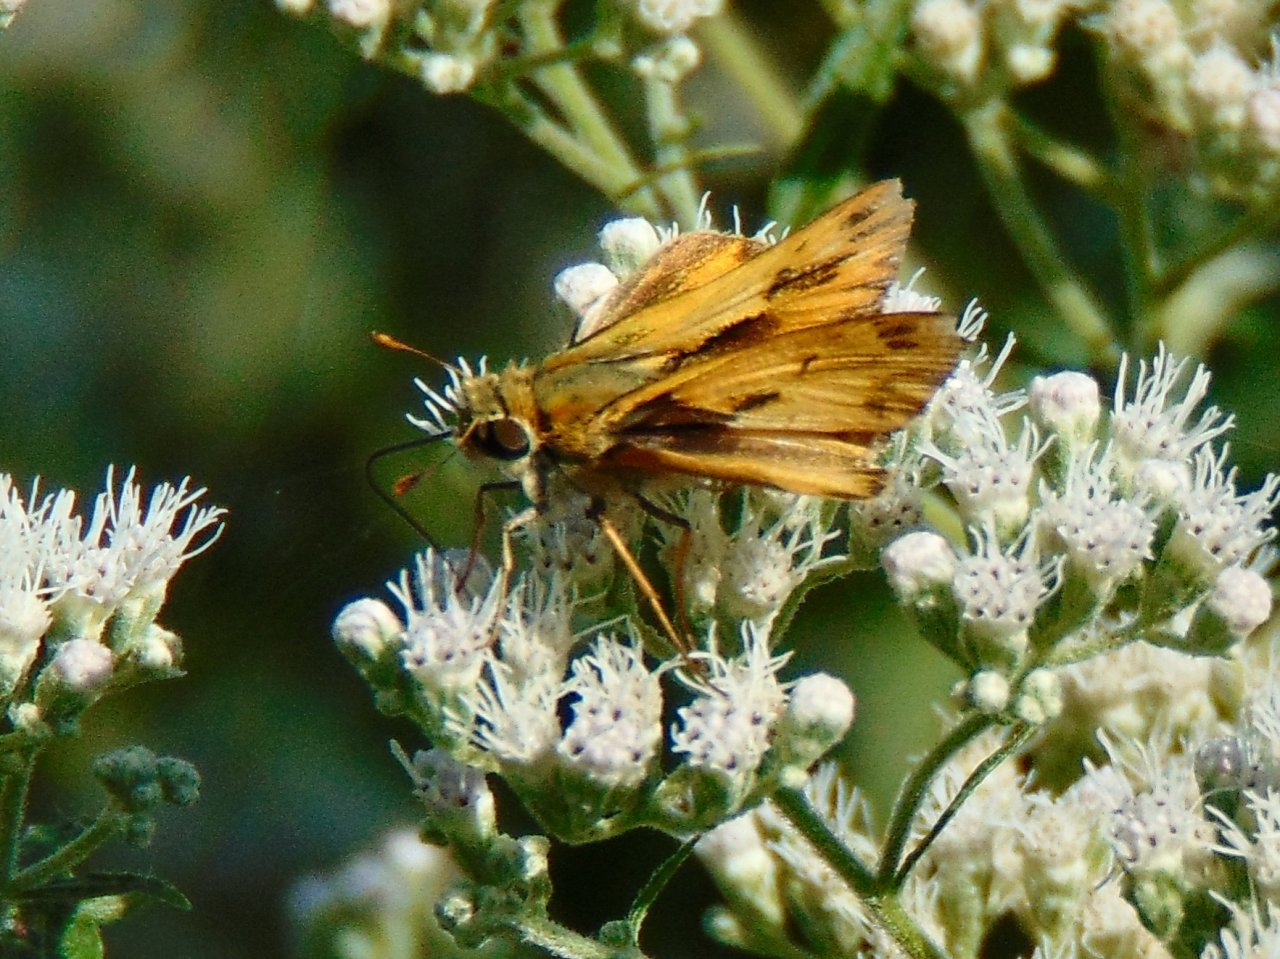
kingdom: Animalia
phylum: Arthropoda
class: Insecta
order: Lepidoptera
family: Hesperiidae
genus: Hylephila
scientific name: Hylephila phyleus
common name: Fiery Skipper
